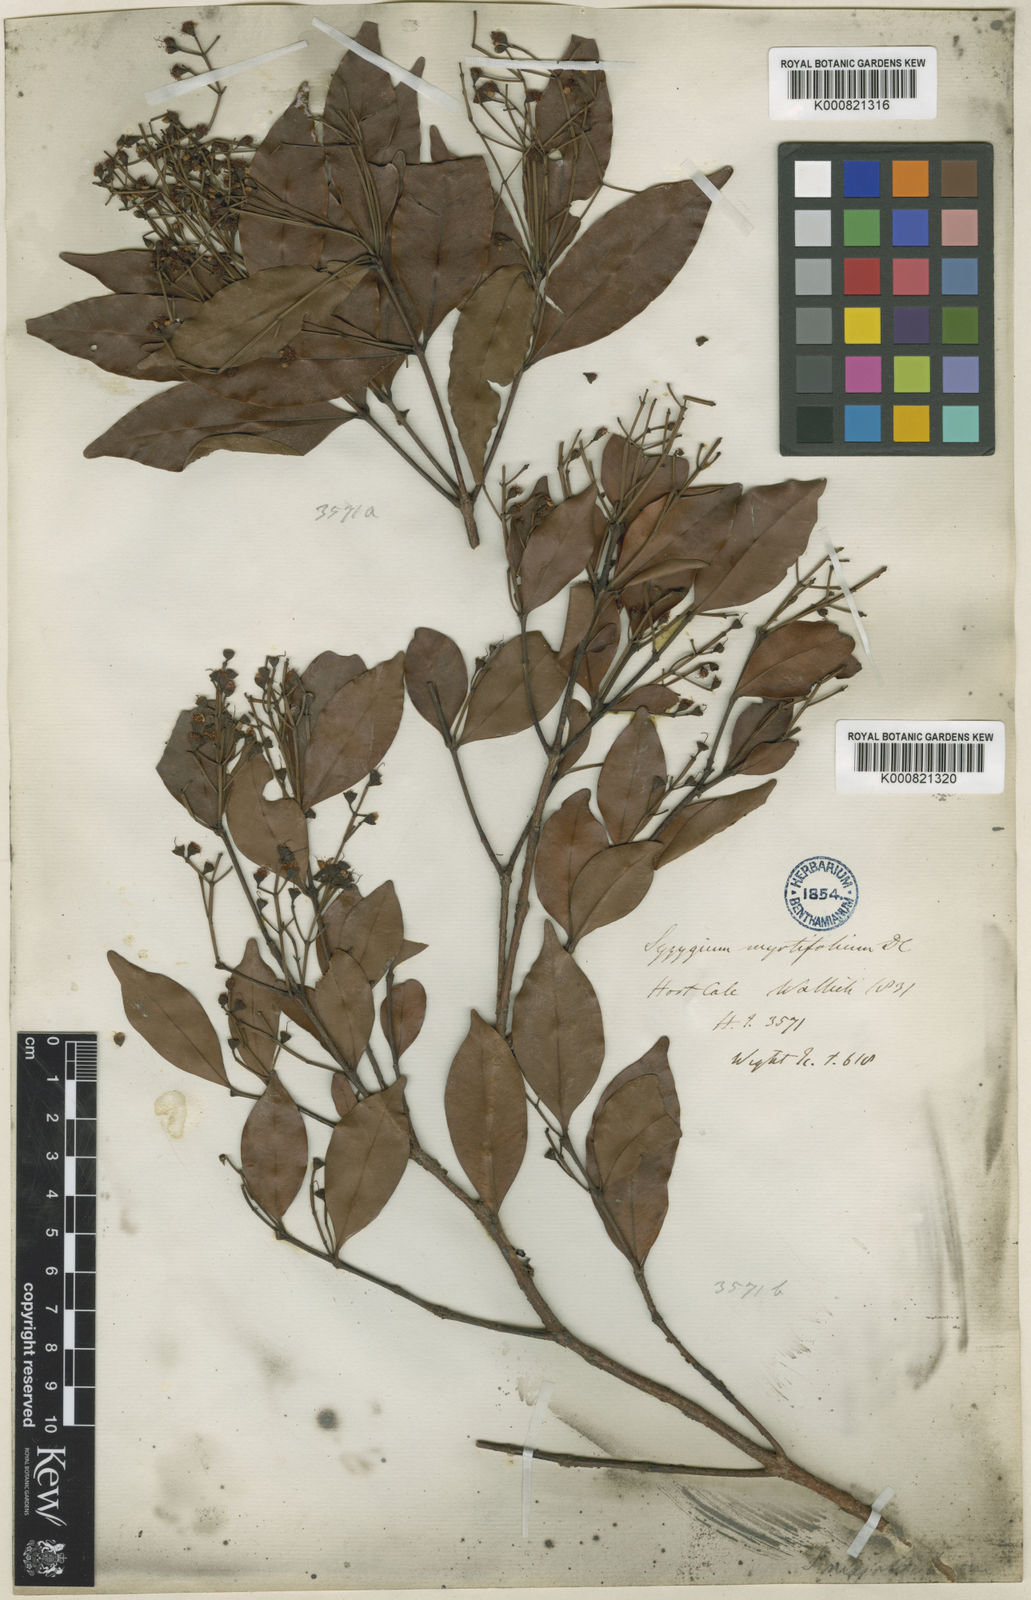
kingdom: Plantae
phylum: Tracheophyta
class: Magnoliopsida
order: Myrtales
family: Myrtaceae
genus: Syzygium
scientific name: Syzygium
